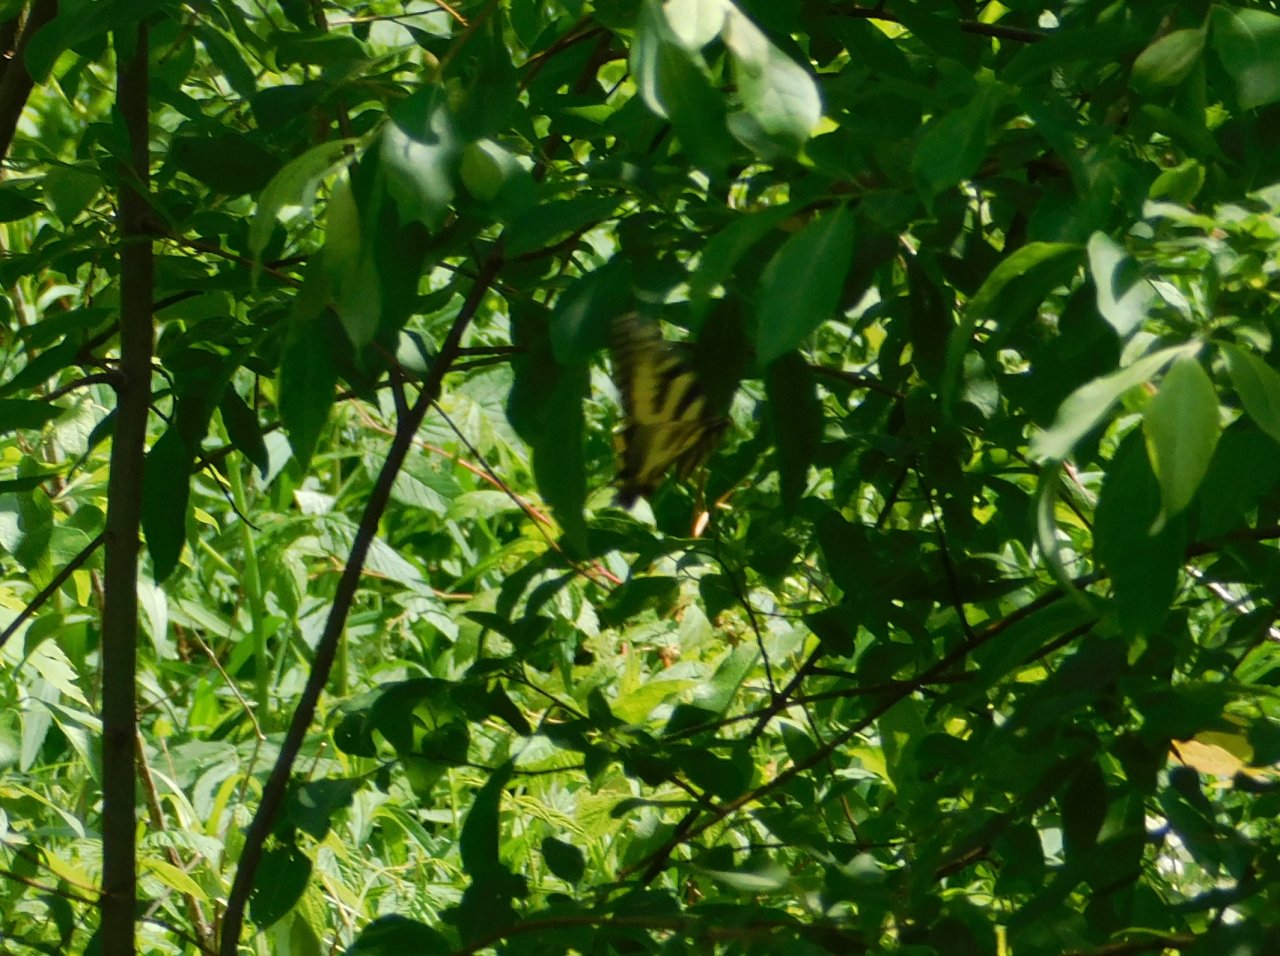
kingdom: Animalia
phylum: Arthropoda
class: Insecta
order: Lepidoptera
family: Papilionidae
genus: Pterourus
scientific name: Pterourus canadensis
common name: Canadian Tiger Swallowtail
